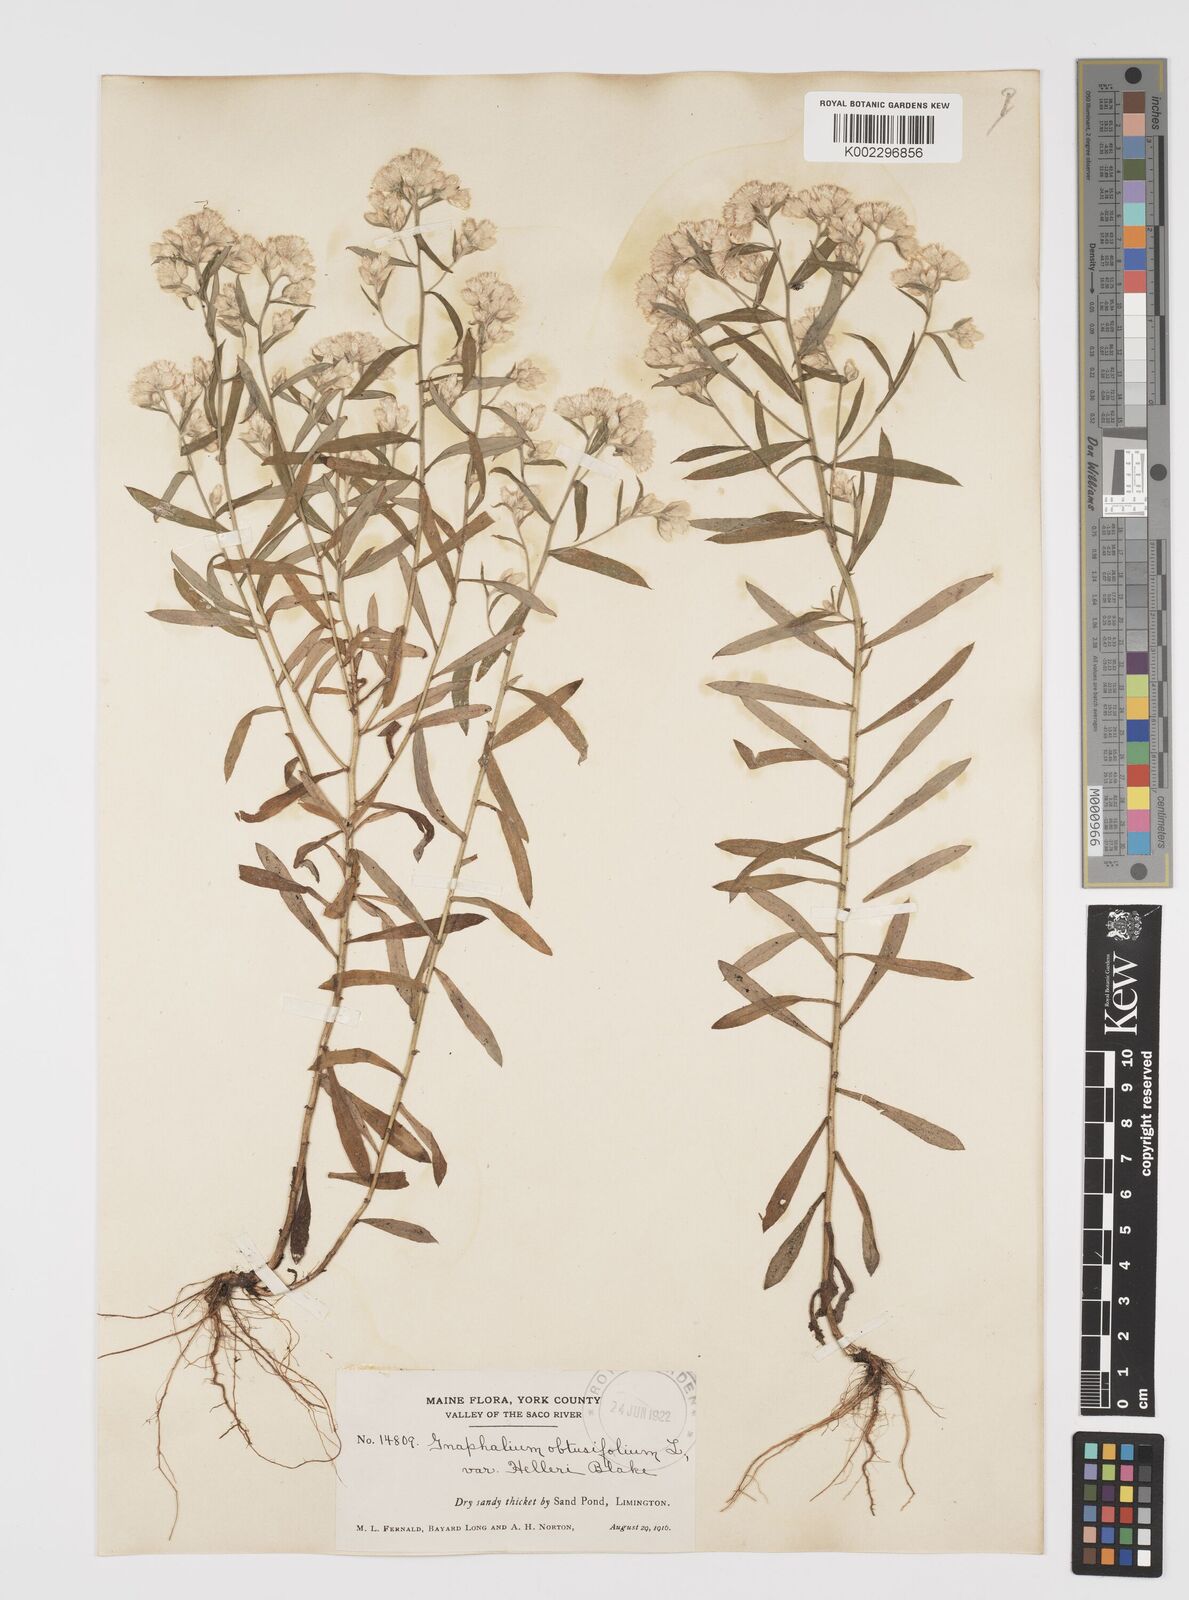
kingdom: Plantae
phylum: Tracheophyta
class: Magnoliopsida
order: Asterales
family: Asteraceae
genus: Pseudognaphalium
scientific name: Pseudognaphalium helleri
